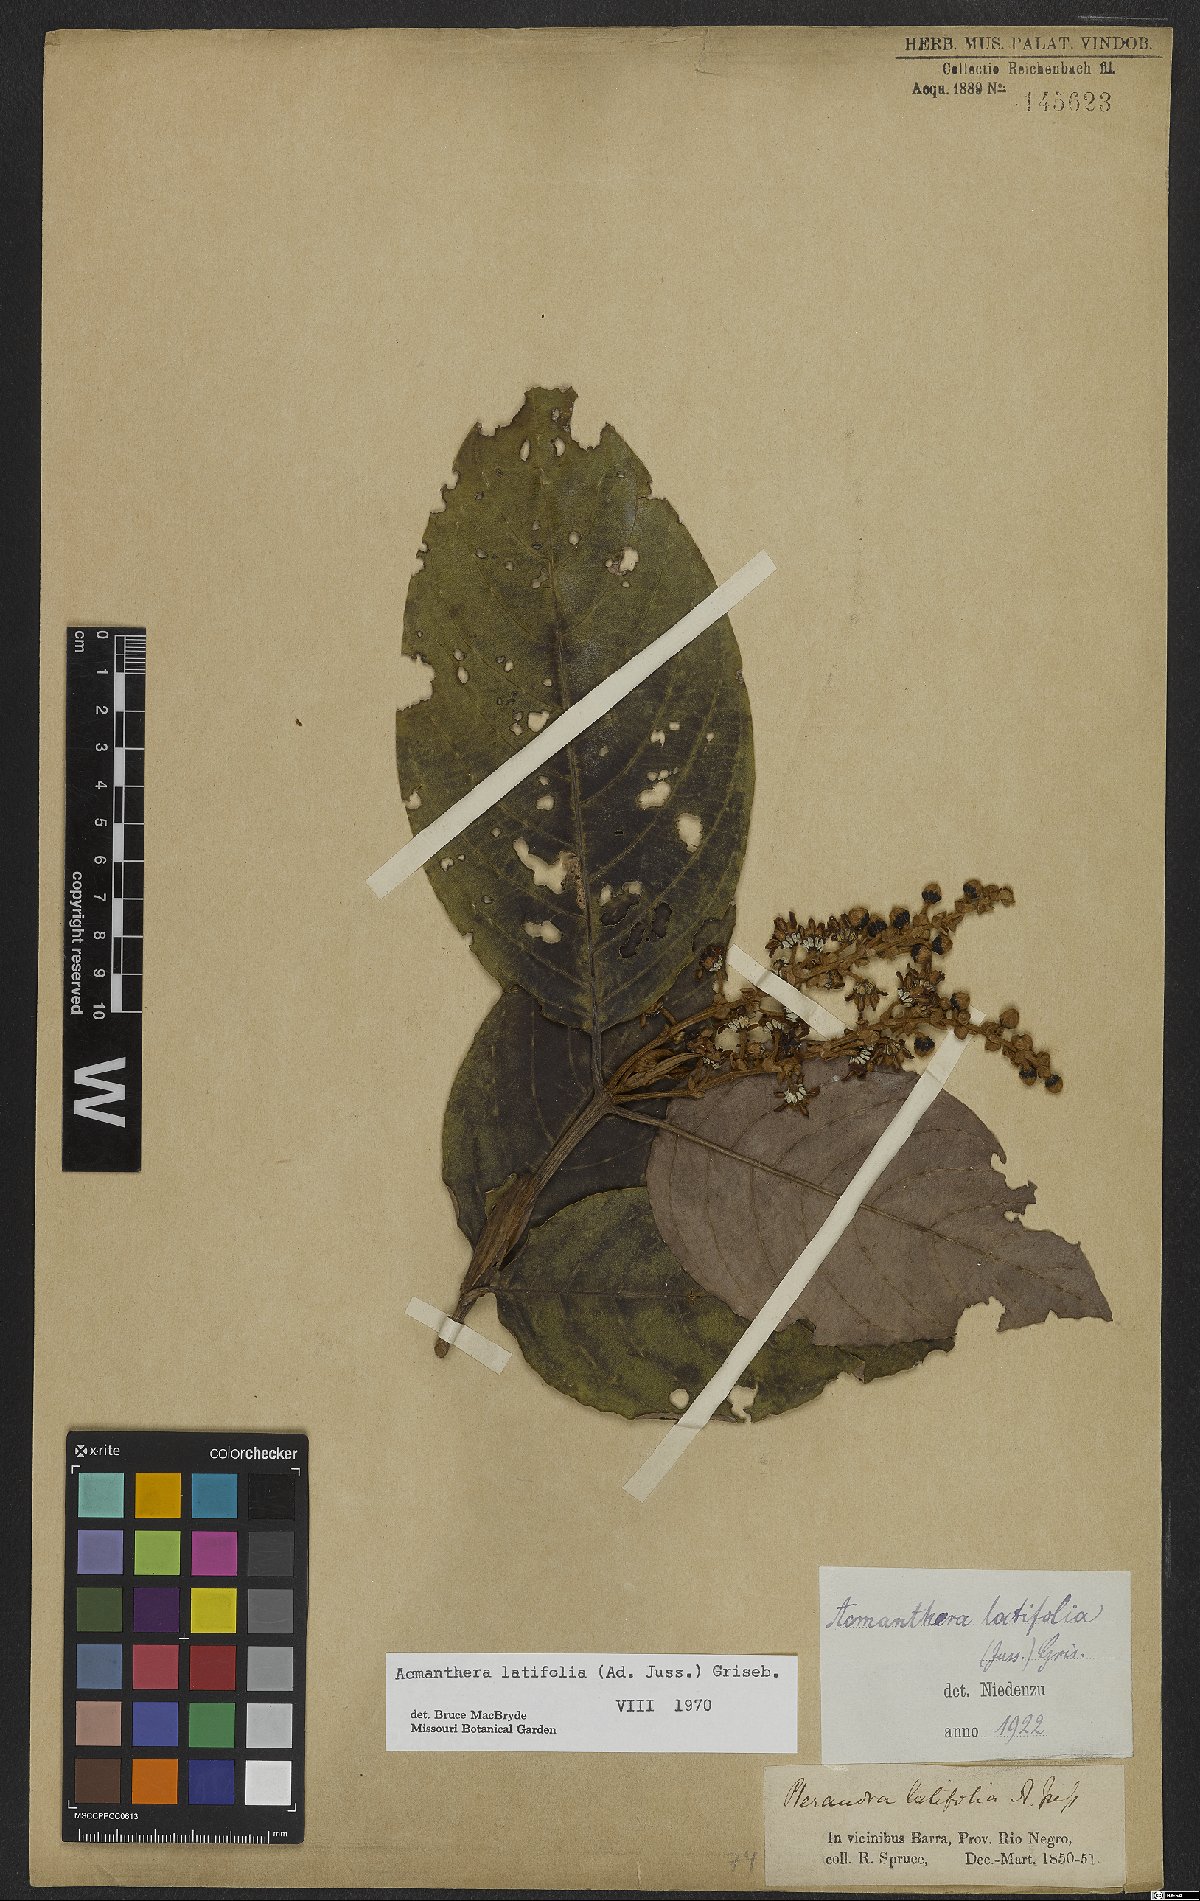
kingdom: Plantae
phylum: Tracheophyta
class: Magnoliopsida
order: Malpighiales
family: Malpighiaceae
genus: Acmanthera
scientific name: Acmanthera latifolia
